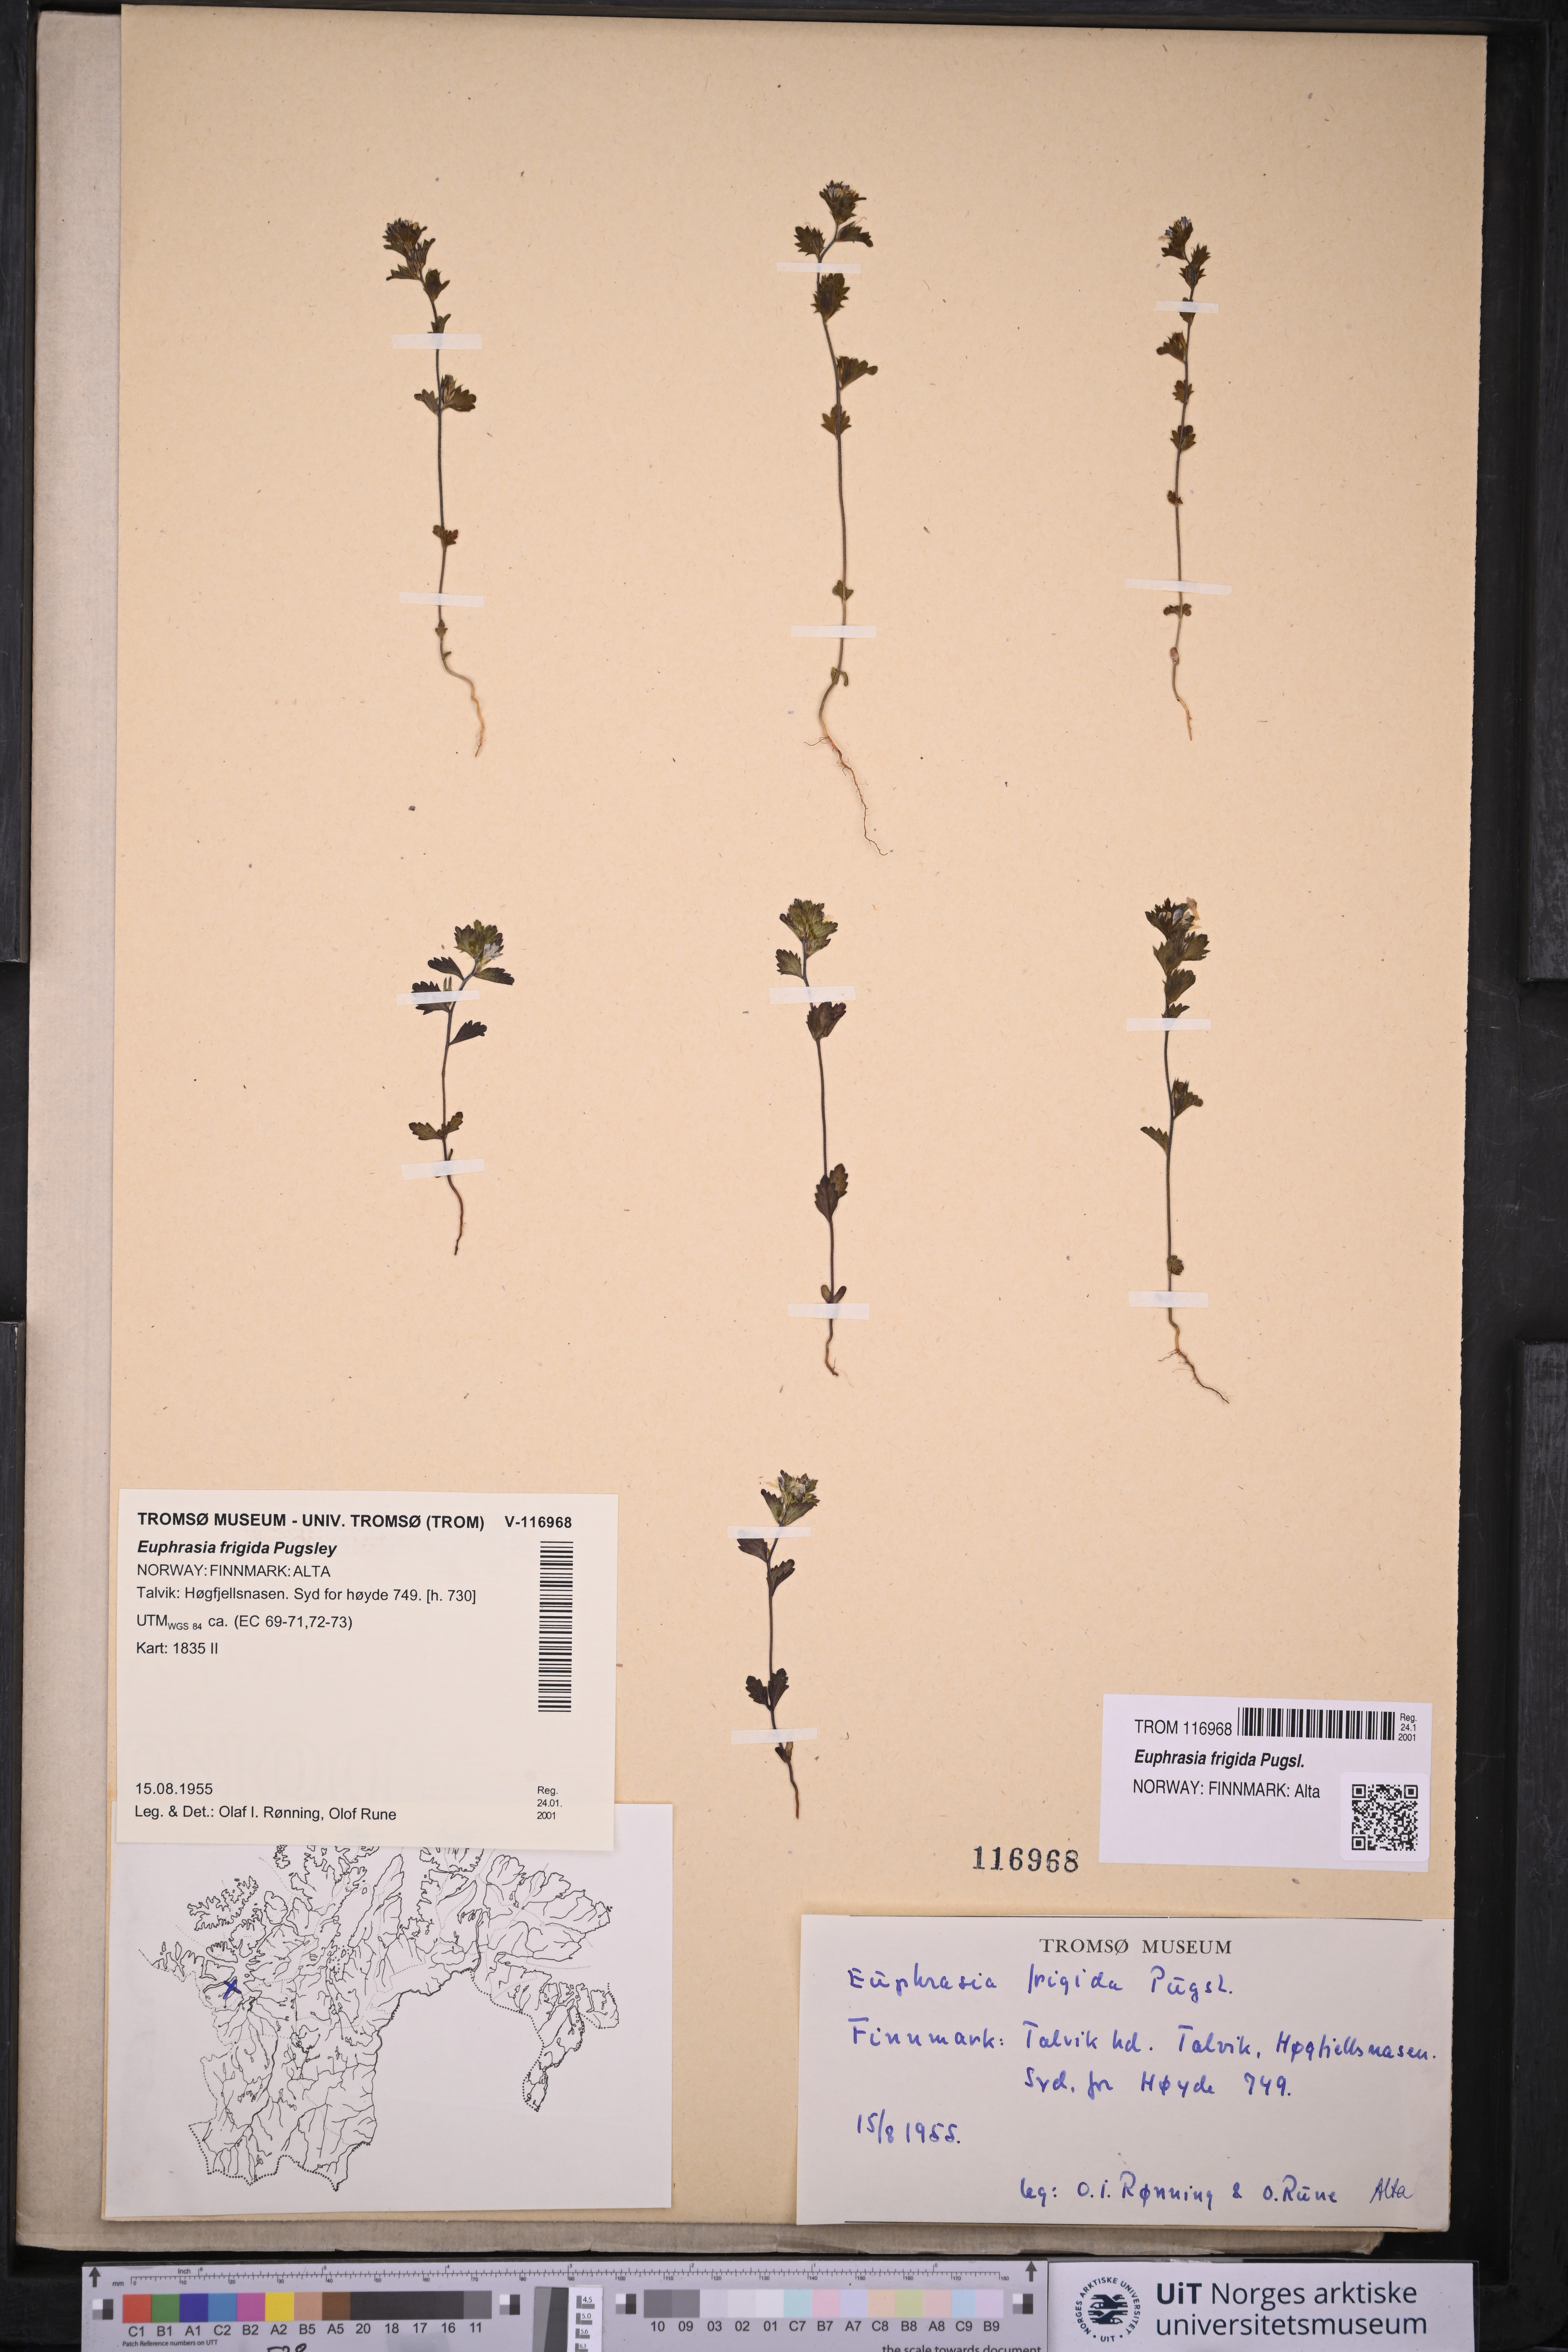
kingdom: Plantae
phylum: Tracheophyta
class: Magnoliopsida
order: Lamiales
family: Orobanchaceae
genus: Euphrasia
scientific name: Euphrasia frigida
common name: An eyebright
